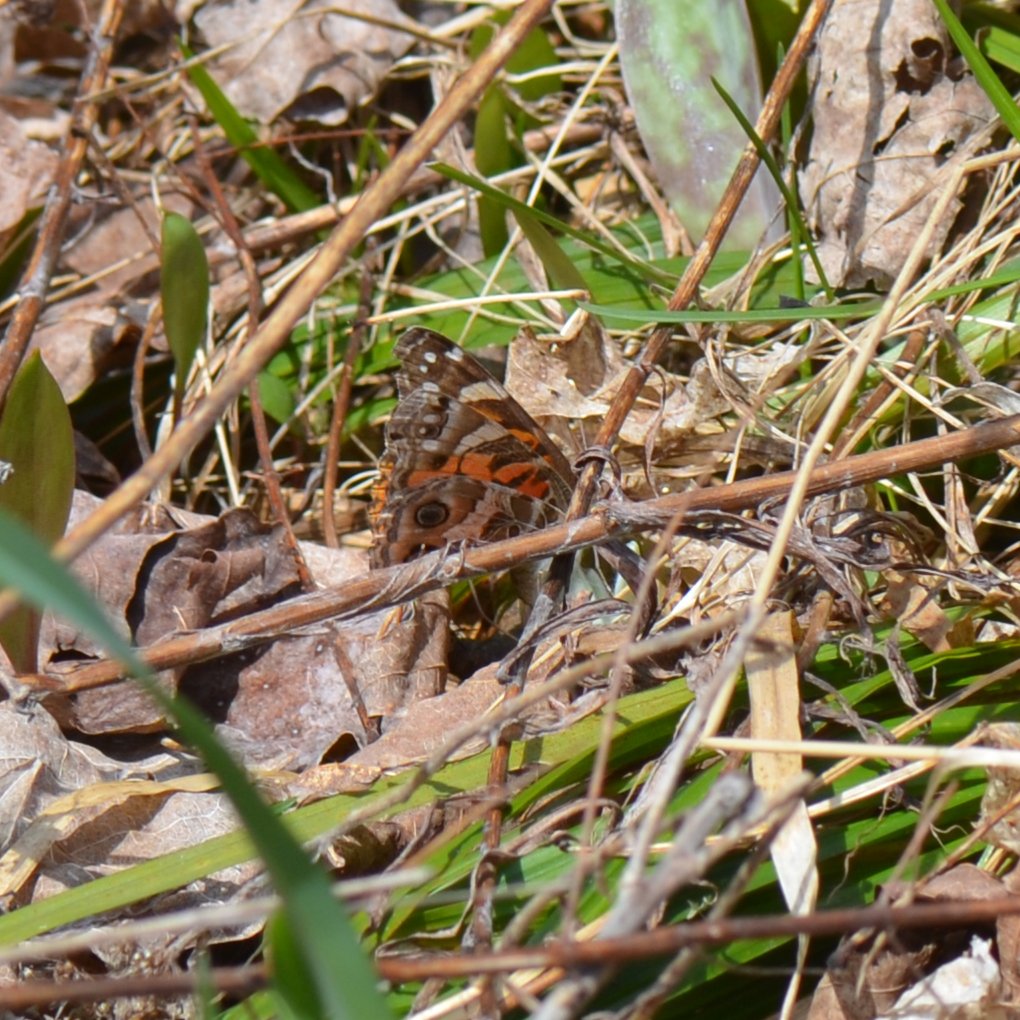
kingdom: Animalia
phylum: Arthropoda
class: Insecta
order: Lepidoptera
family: Nymphalidae
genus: Vanessa
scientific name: Vanessa virginiensis
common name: American Lady
